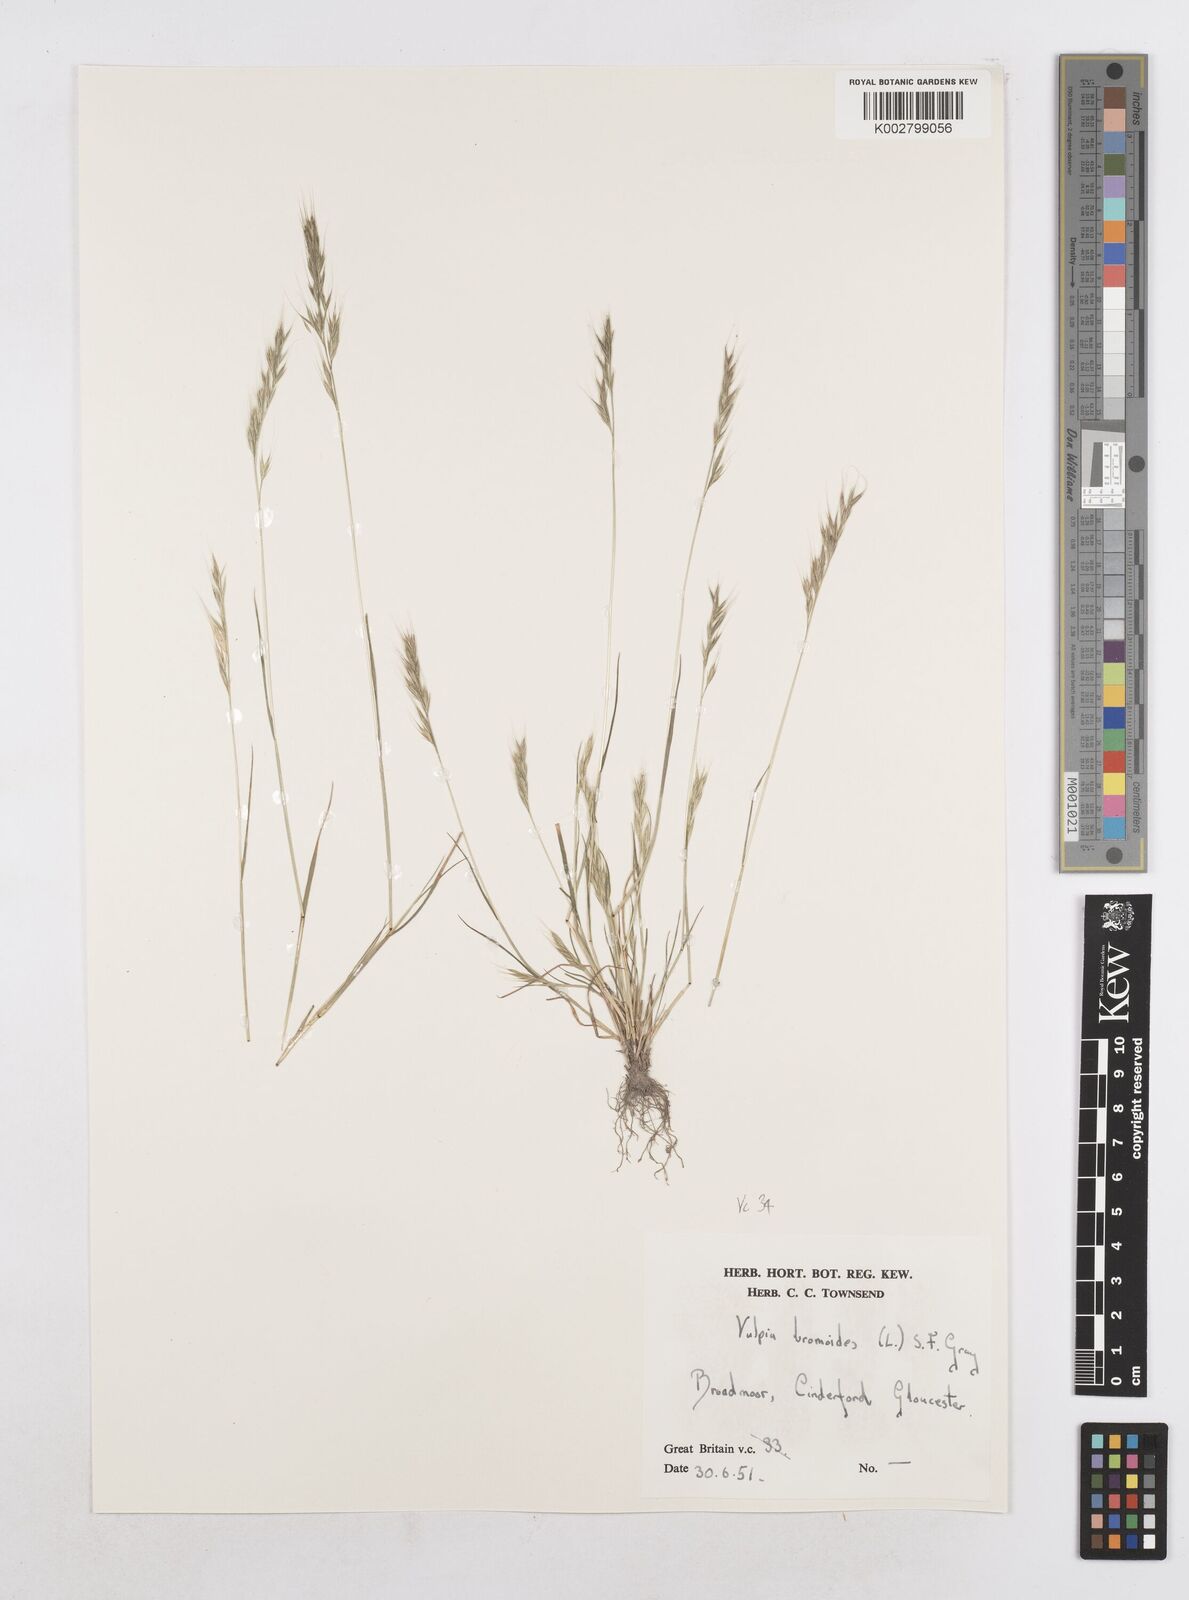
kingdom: Plantae
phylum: Tracheophyta
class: Liliopsida
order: Poales
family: Poaceae
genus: Festuca
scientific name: Festuca bromoides
